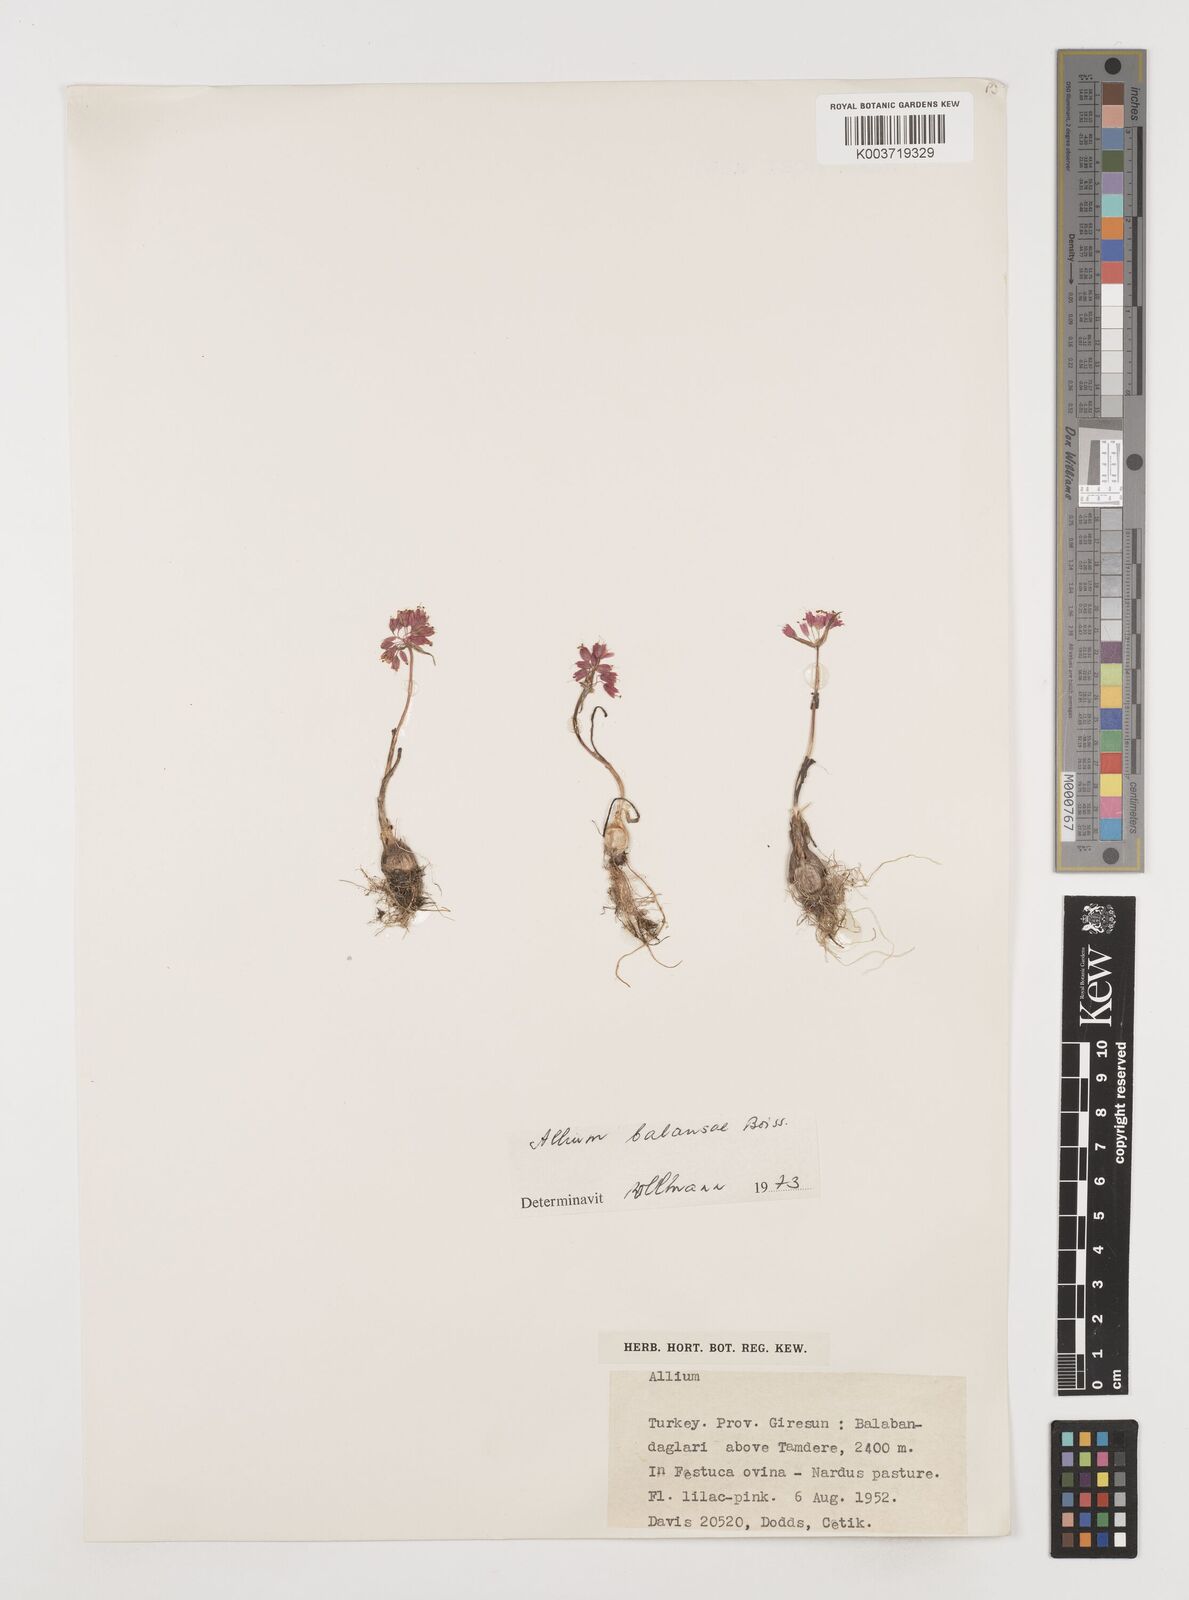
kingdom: Plantae
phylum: Tracheophyta
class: Liliopsida
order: Asparagales
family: Amaryllidaceae
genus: Allium
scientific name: Allium balansae
